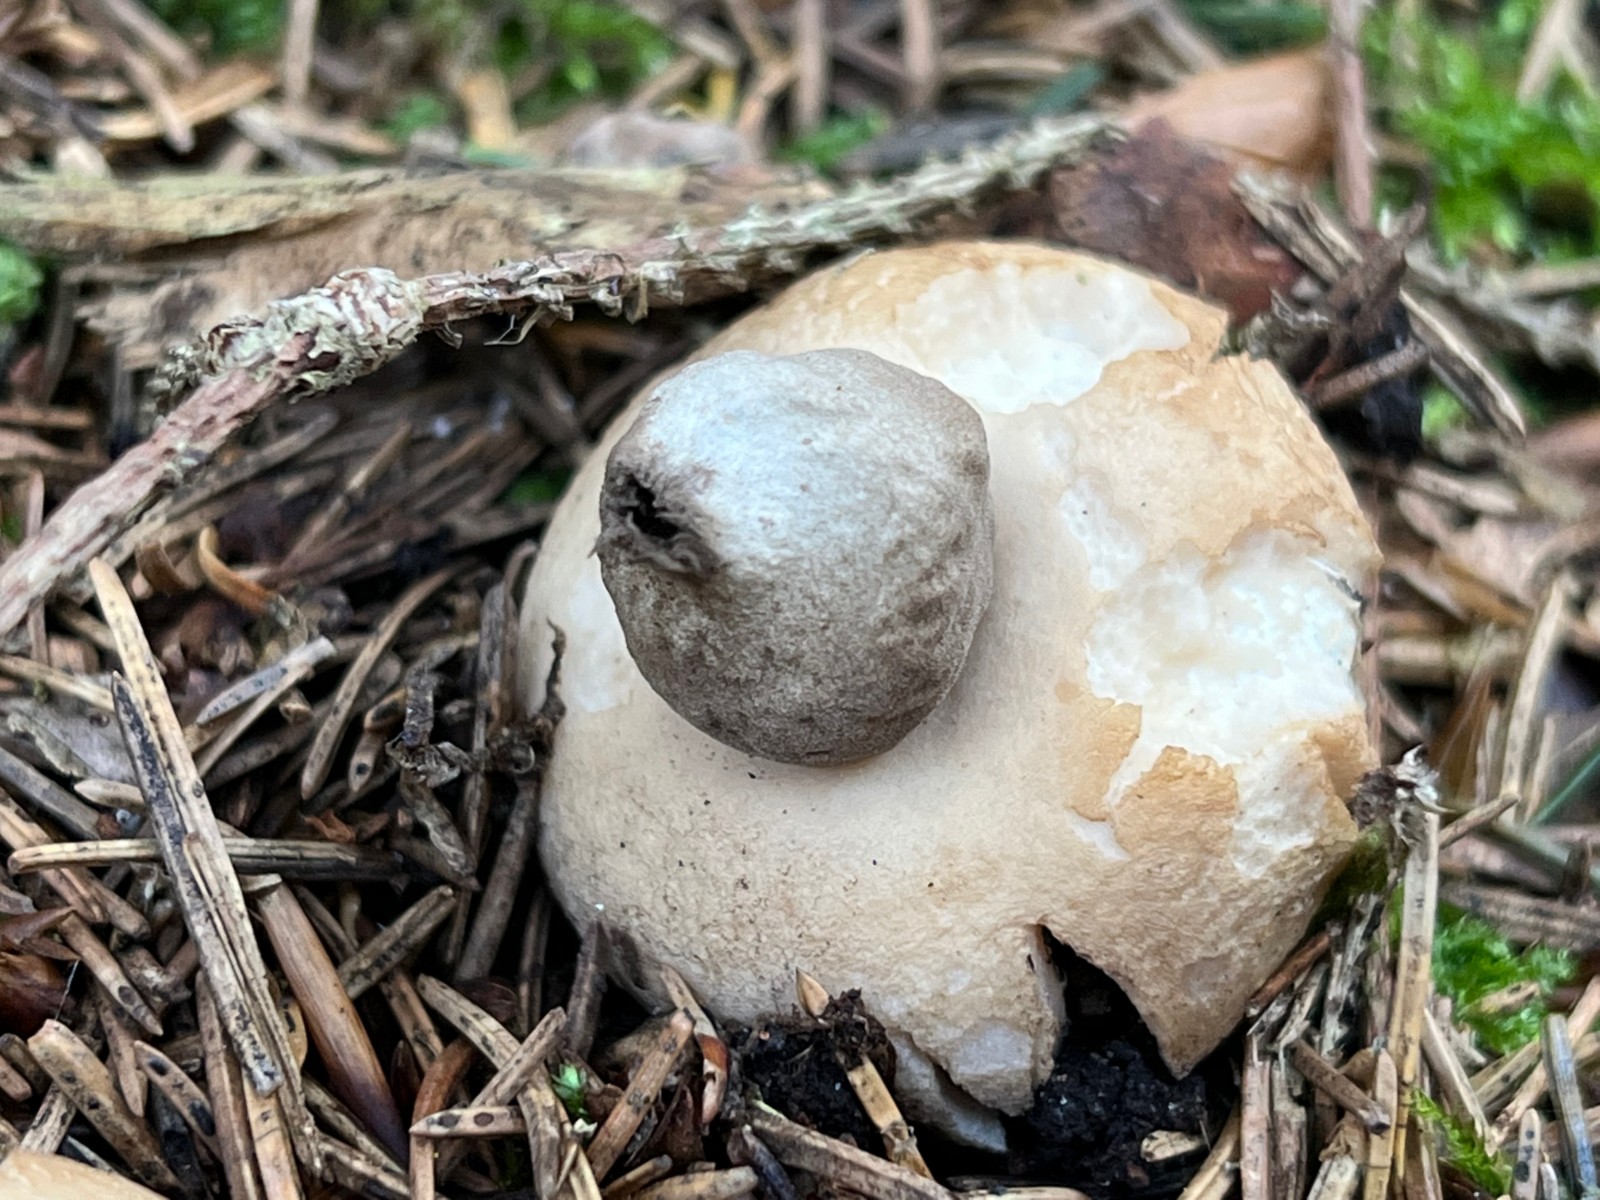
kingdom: Fungi
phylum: Basidiomycota
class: Agaricomycetes
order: Geastrales
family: Geastraceae
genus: Geastrum
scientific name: Geastrum fimbriatum
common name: frynset stjernebold
